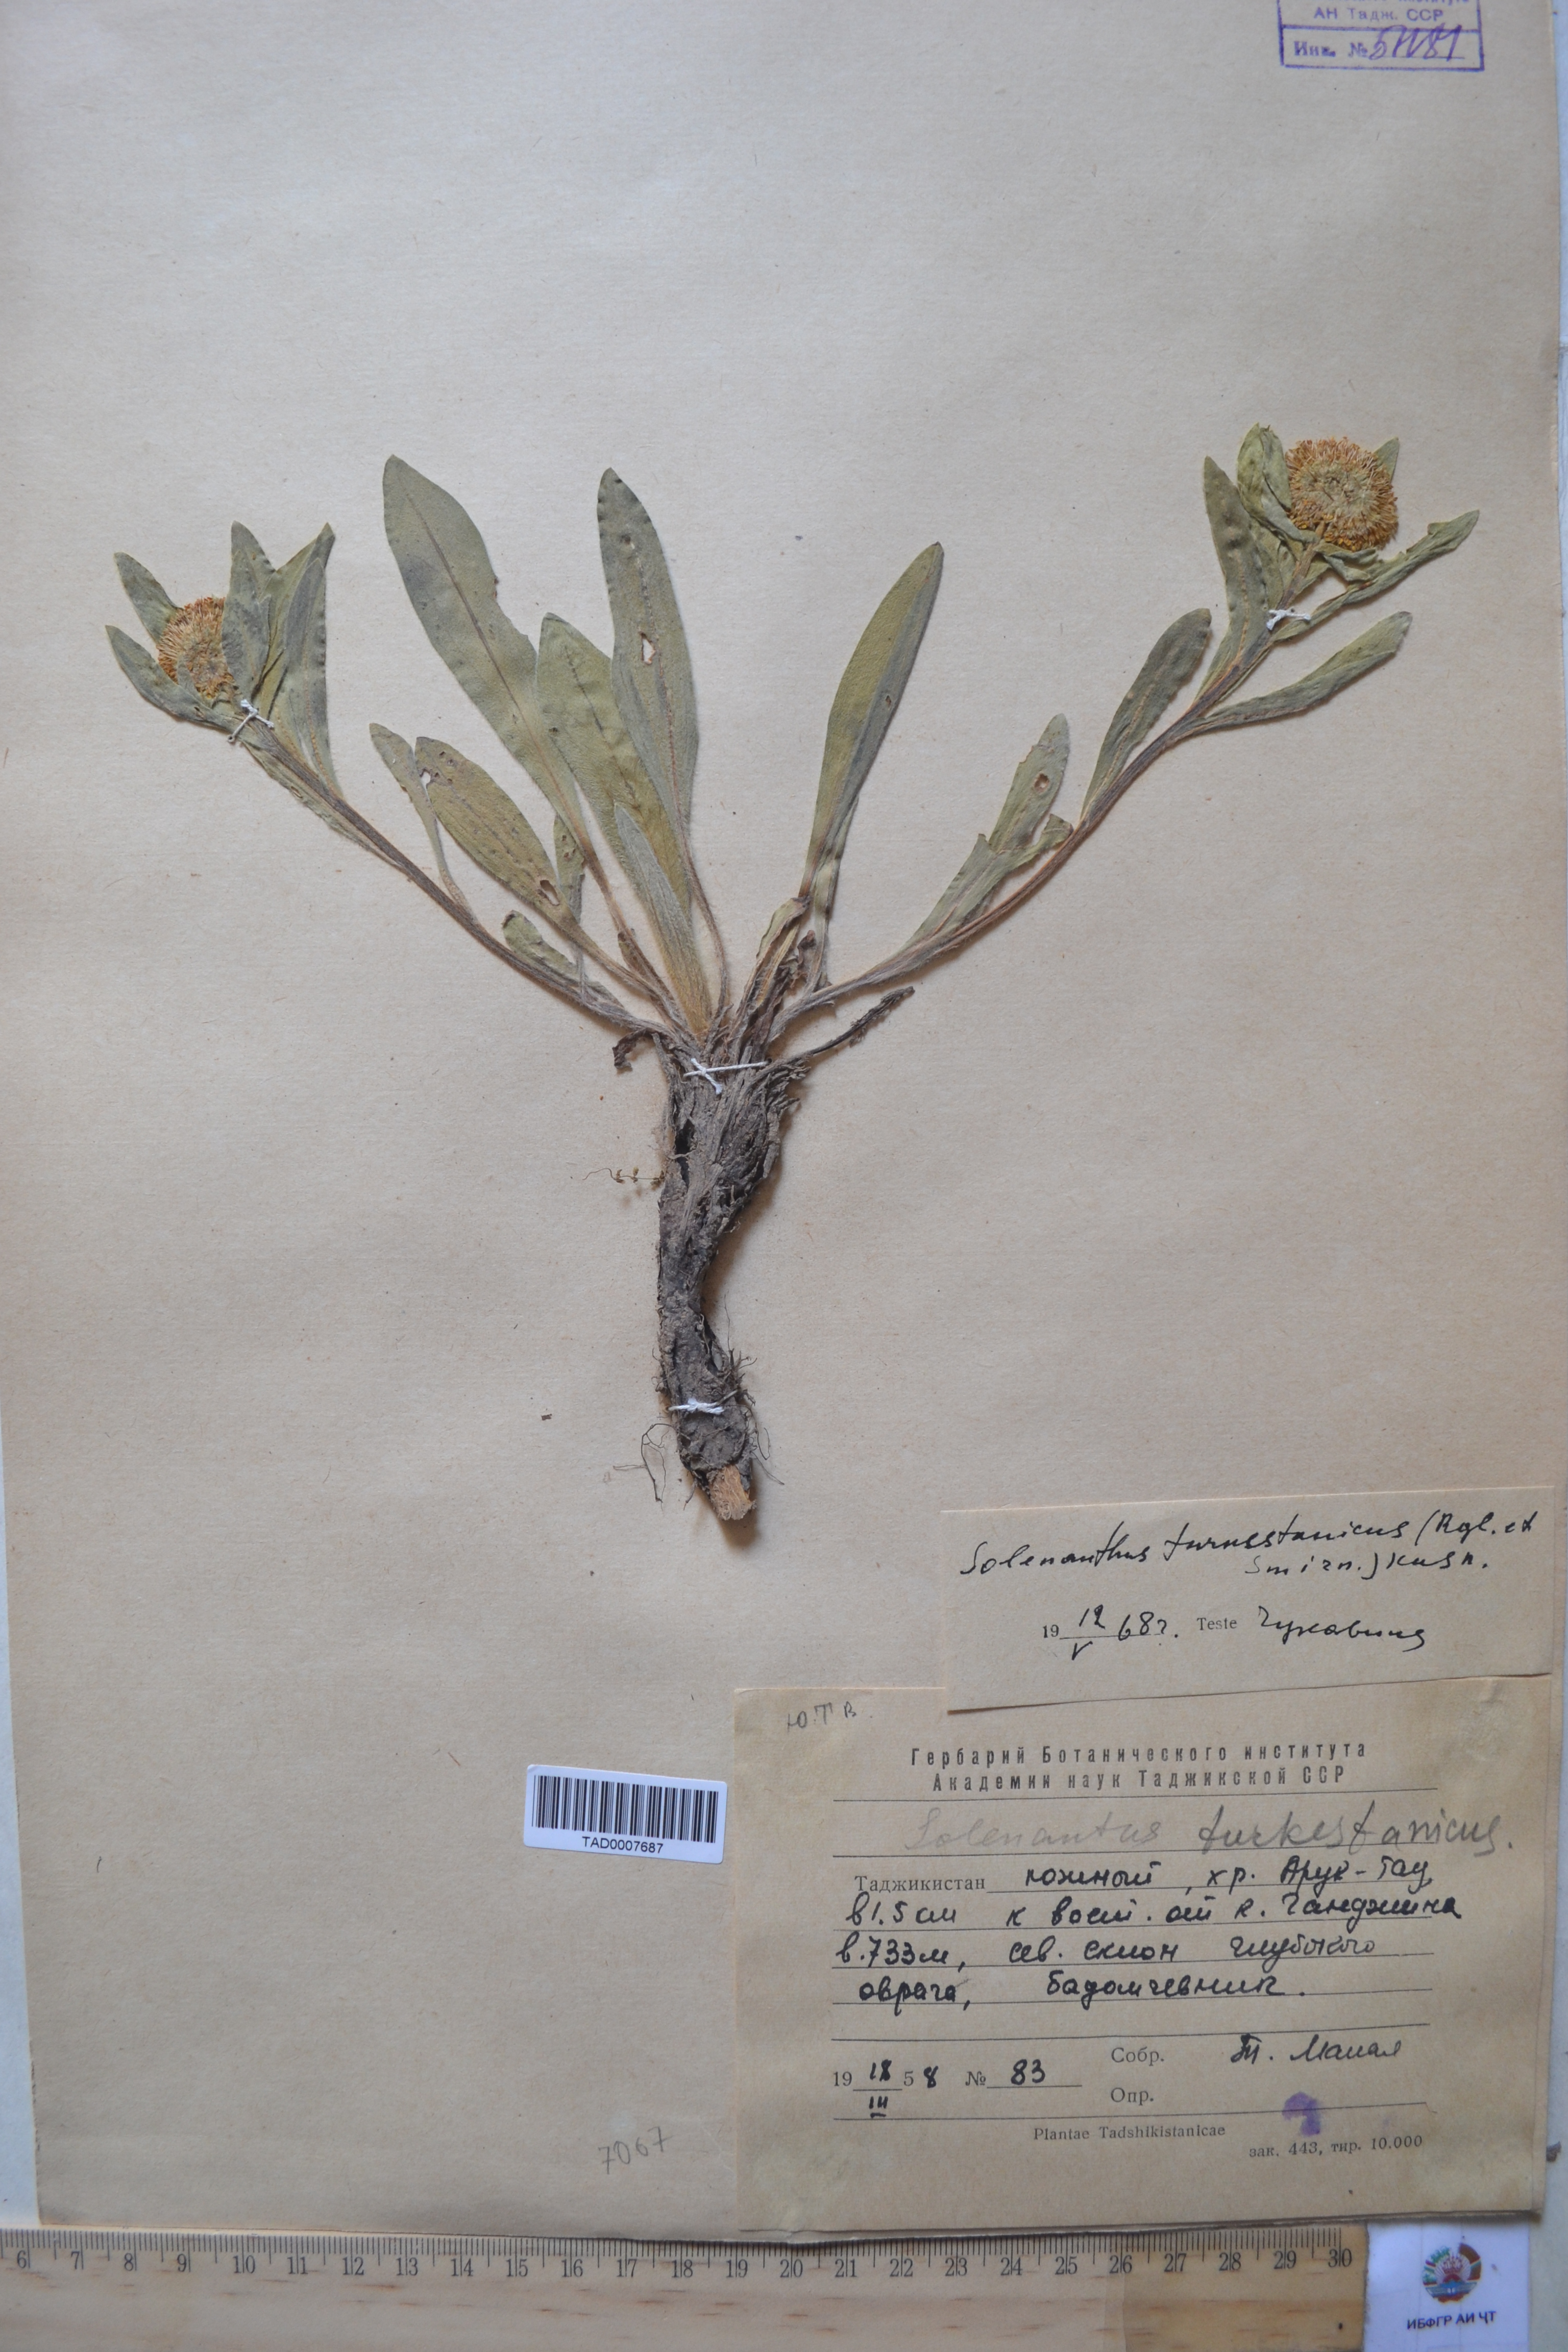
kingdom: Plantae
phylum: Tracheophyta
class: Magnoliopsida
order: Boraginales
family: Boraginaceae
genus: Solenanthus
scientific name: Solenanthus turkestanicus
